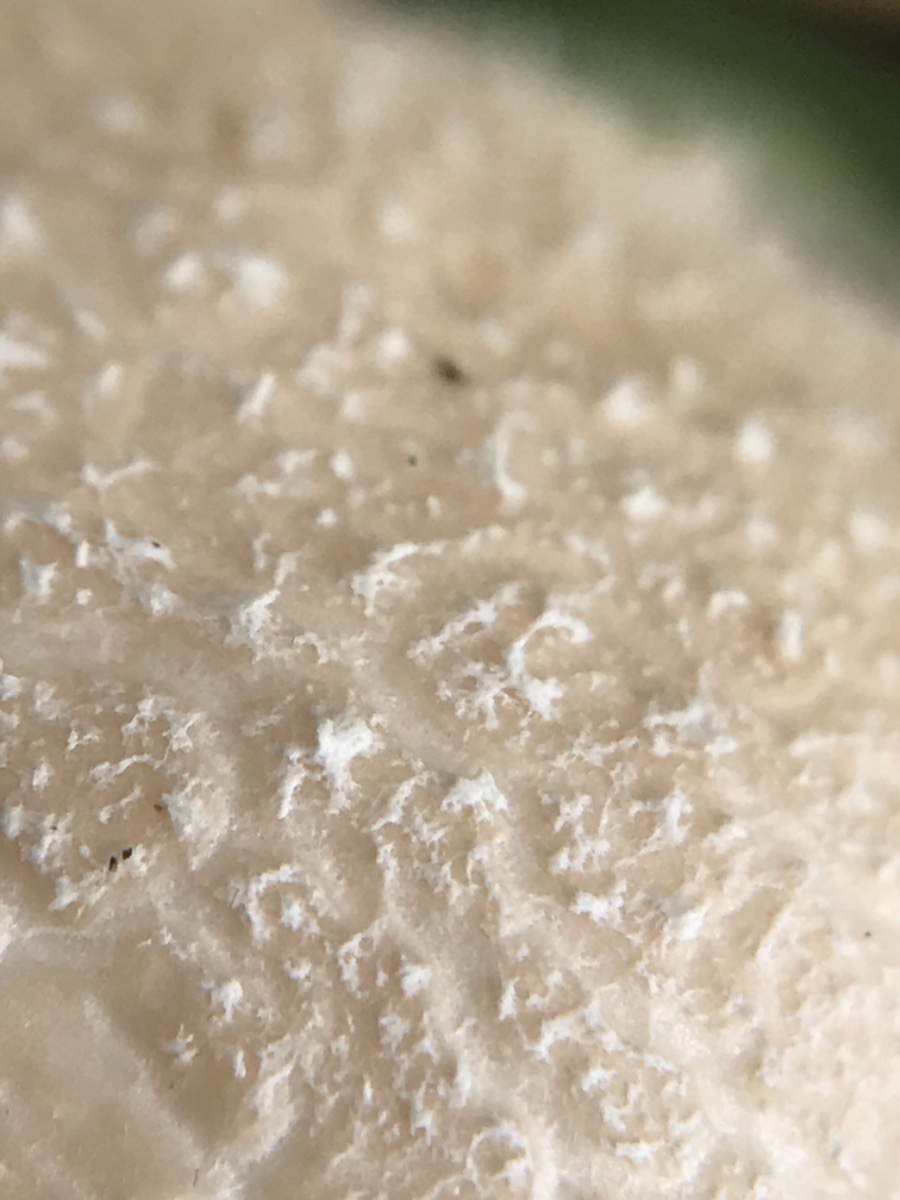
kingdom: Fungi
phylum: Basidiomycota
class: Agaricomycetes
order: Agaricales
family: Lycoperdaceae
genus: Lycoperdon
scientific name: Lycoperdon pratense
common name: flad støvbold
